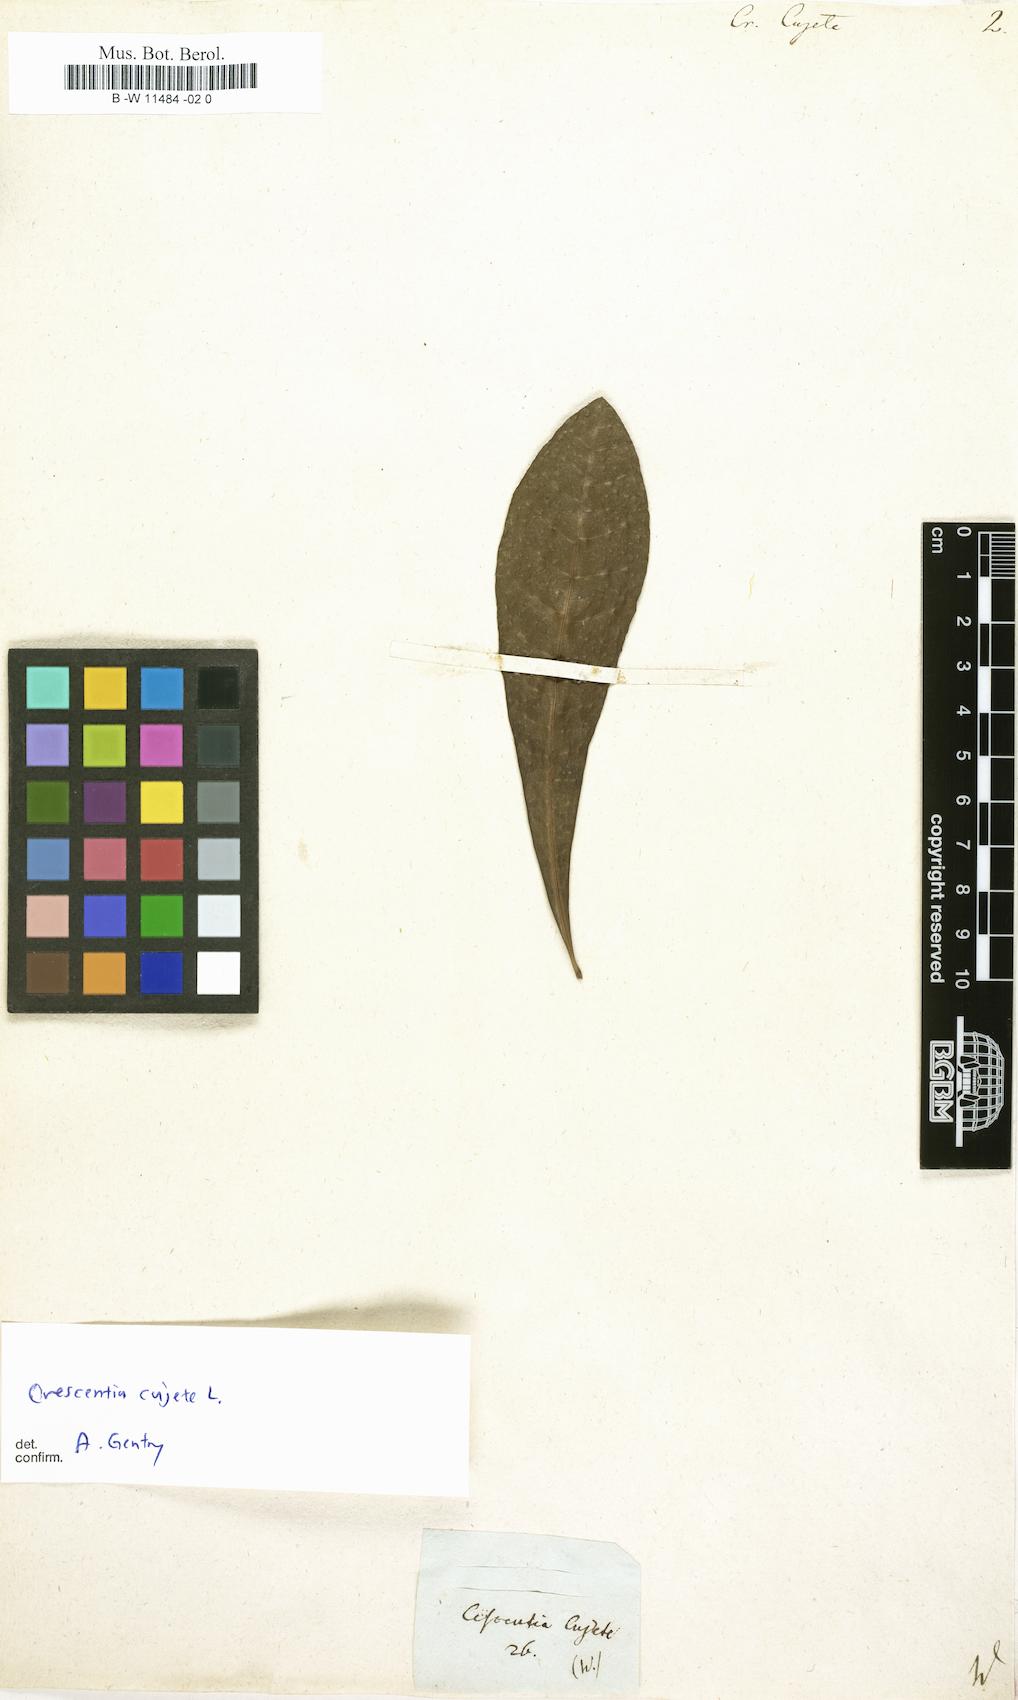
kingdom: Plantae
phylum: Tracheophyta
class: Magnoliopsida
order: Lamiales
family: Bignoniaceae
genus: Crescentia
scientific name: Crescentia cujete
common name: Calabash
